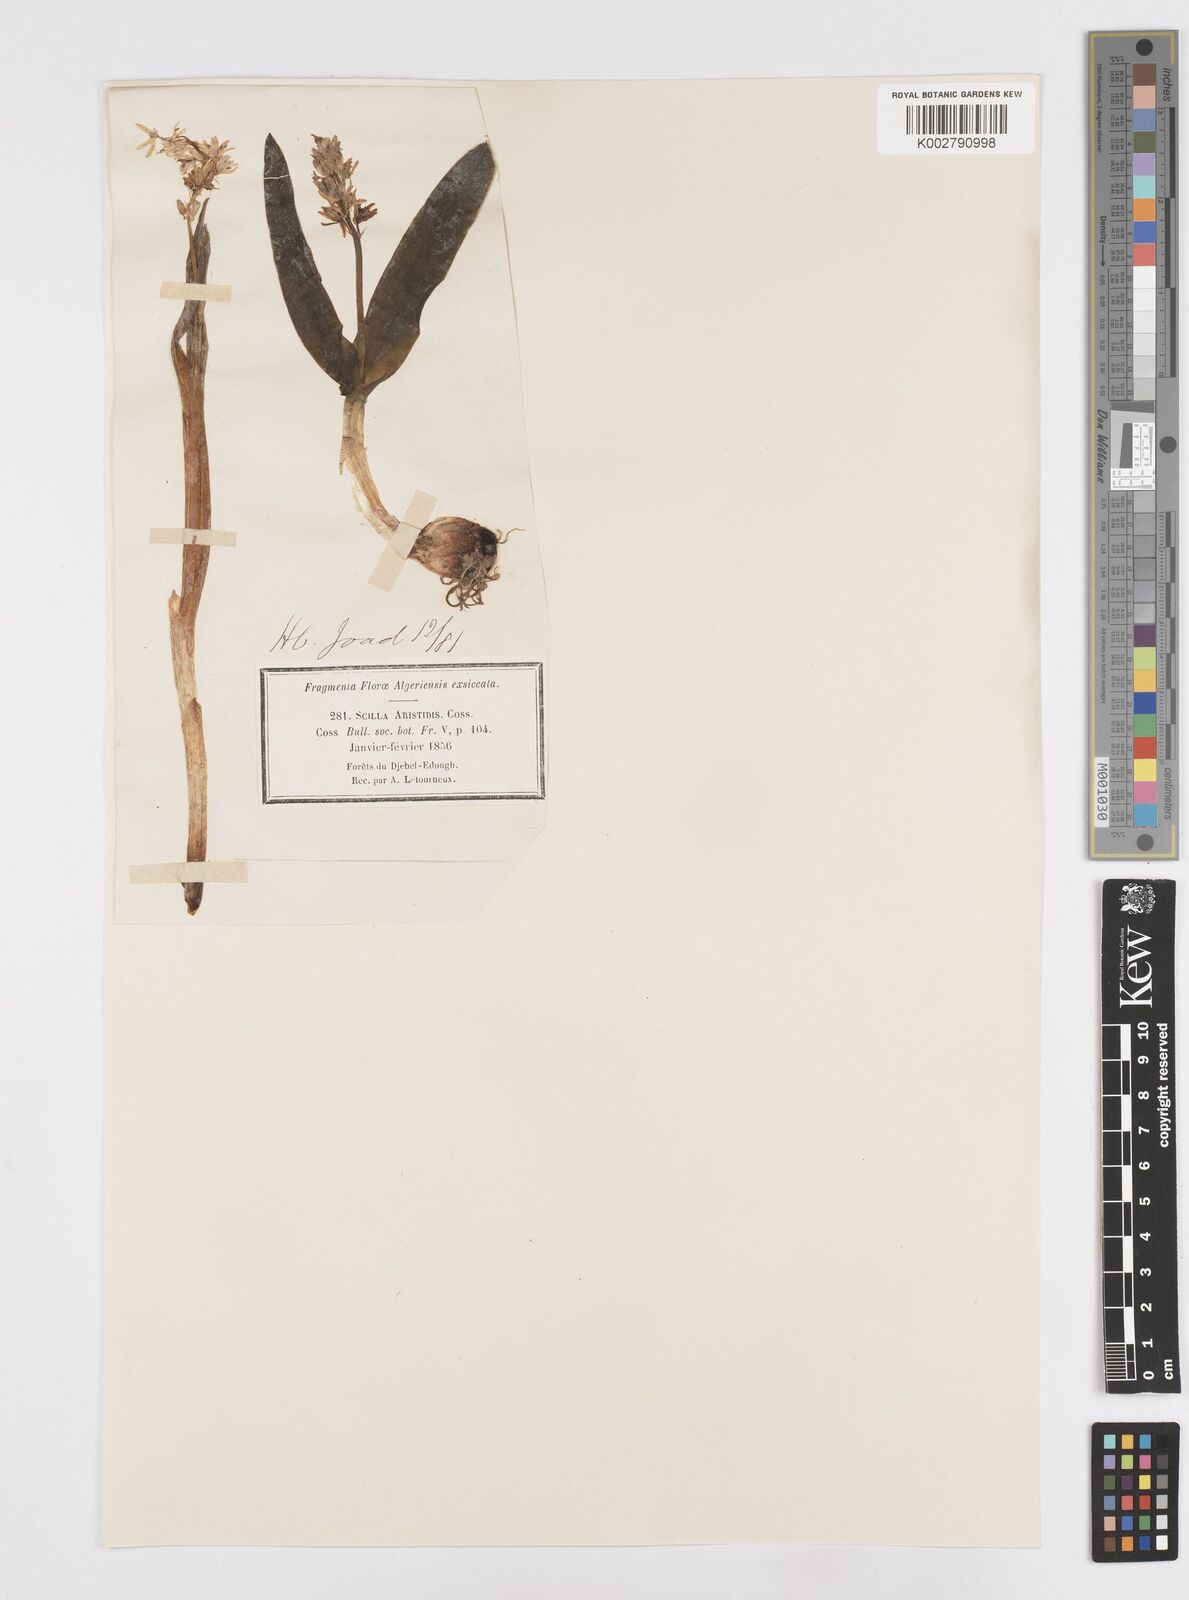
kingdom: Plantae
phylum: Tracheophyta
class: Liliopsida
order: Asparagales
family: Asparagaceae
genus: Hyacinthoides
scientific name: Hyacinthoides aristidis
